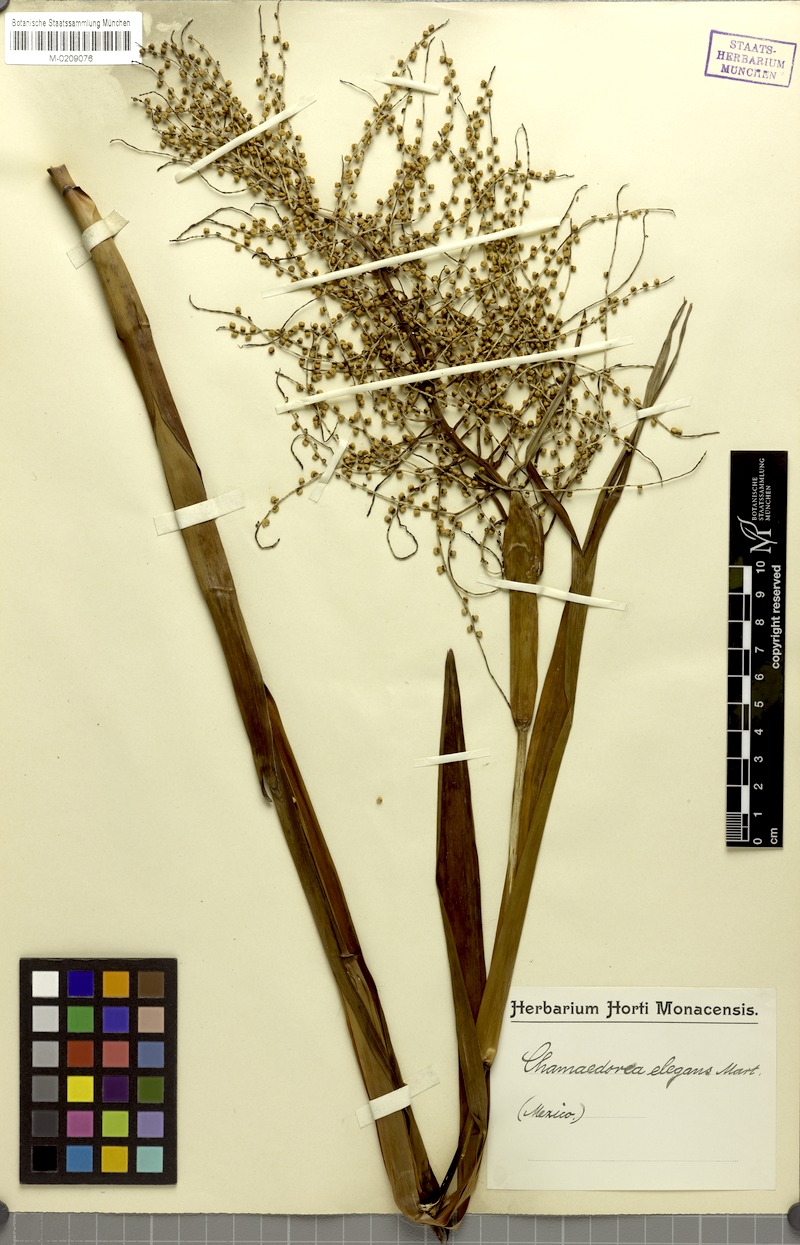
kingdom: Plantae
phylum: Tracheophyta
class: Liliopsida
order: Arecales
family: Arecaceae
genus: Chamaedorea
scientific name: Chamaedorea elegans
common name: Good-luck palm
